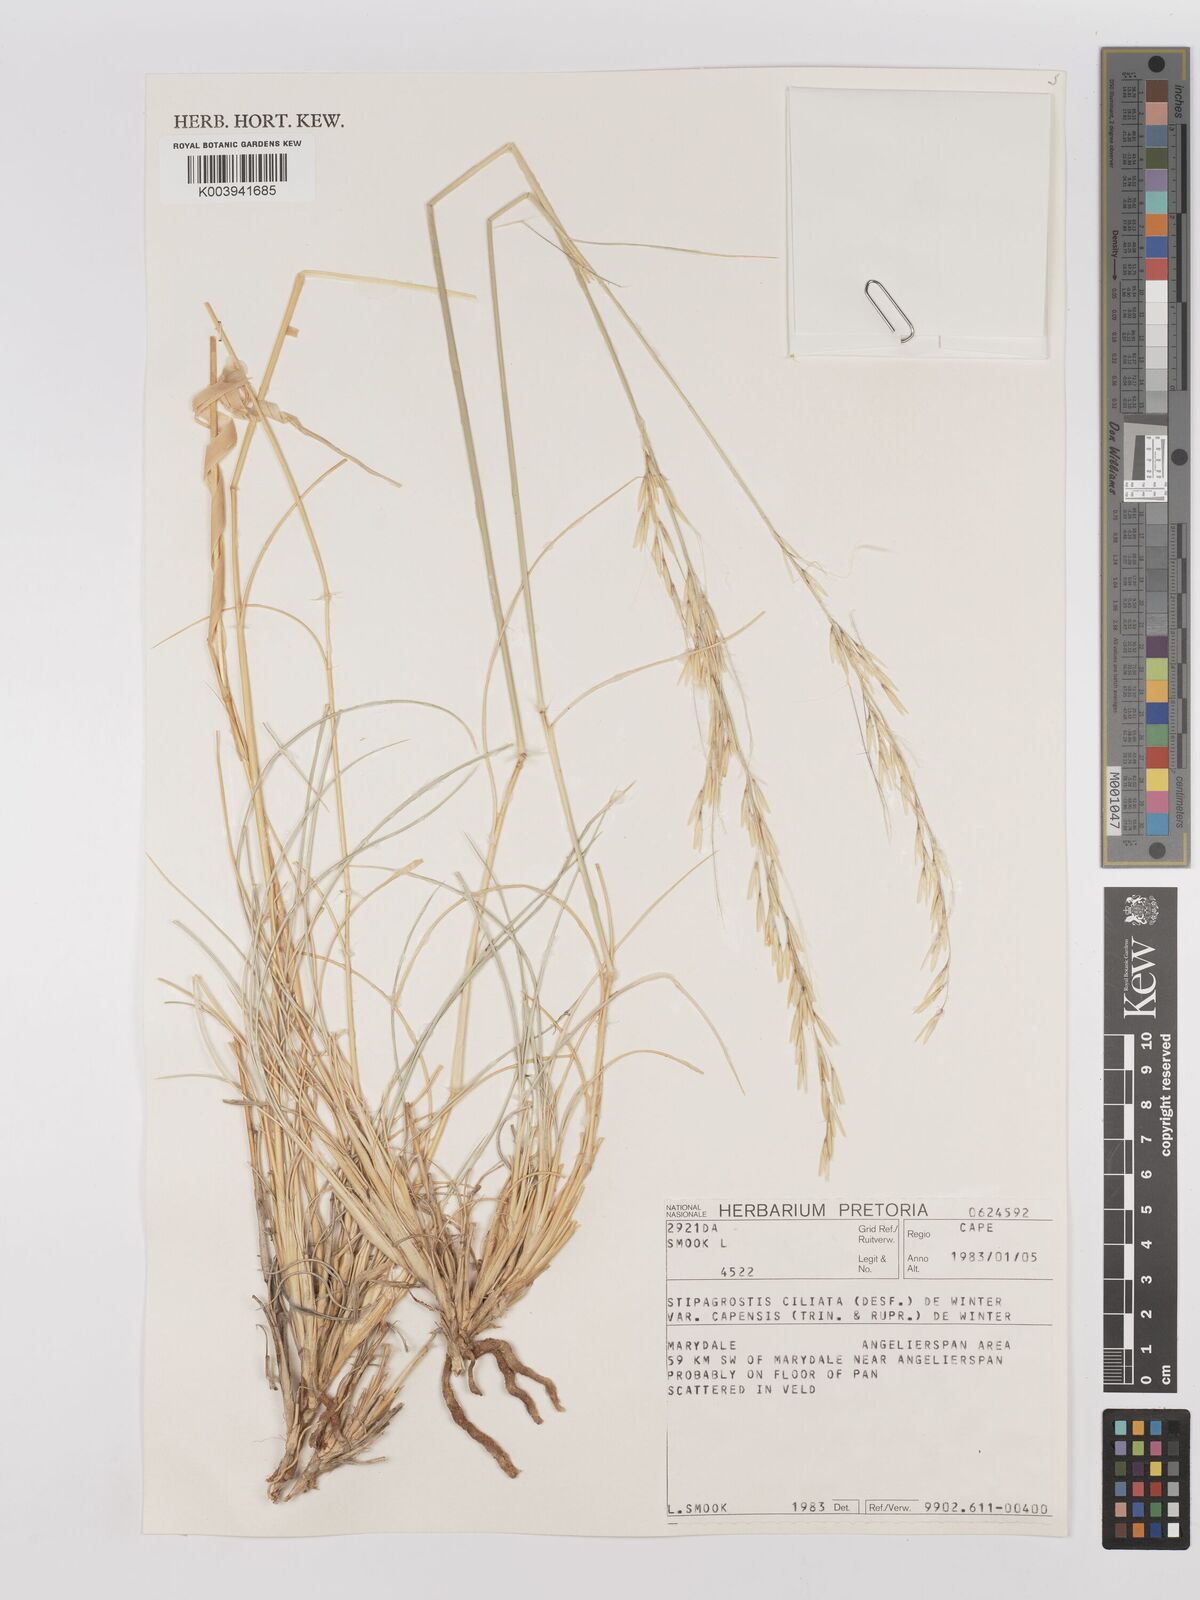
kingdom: Plantae
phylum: Tracheophyta
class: Liliopsida
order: Poales
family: Poaceae
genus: Stipagrostis
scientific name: Stipagrostis ciliata
